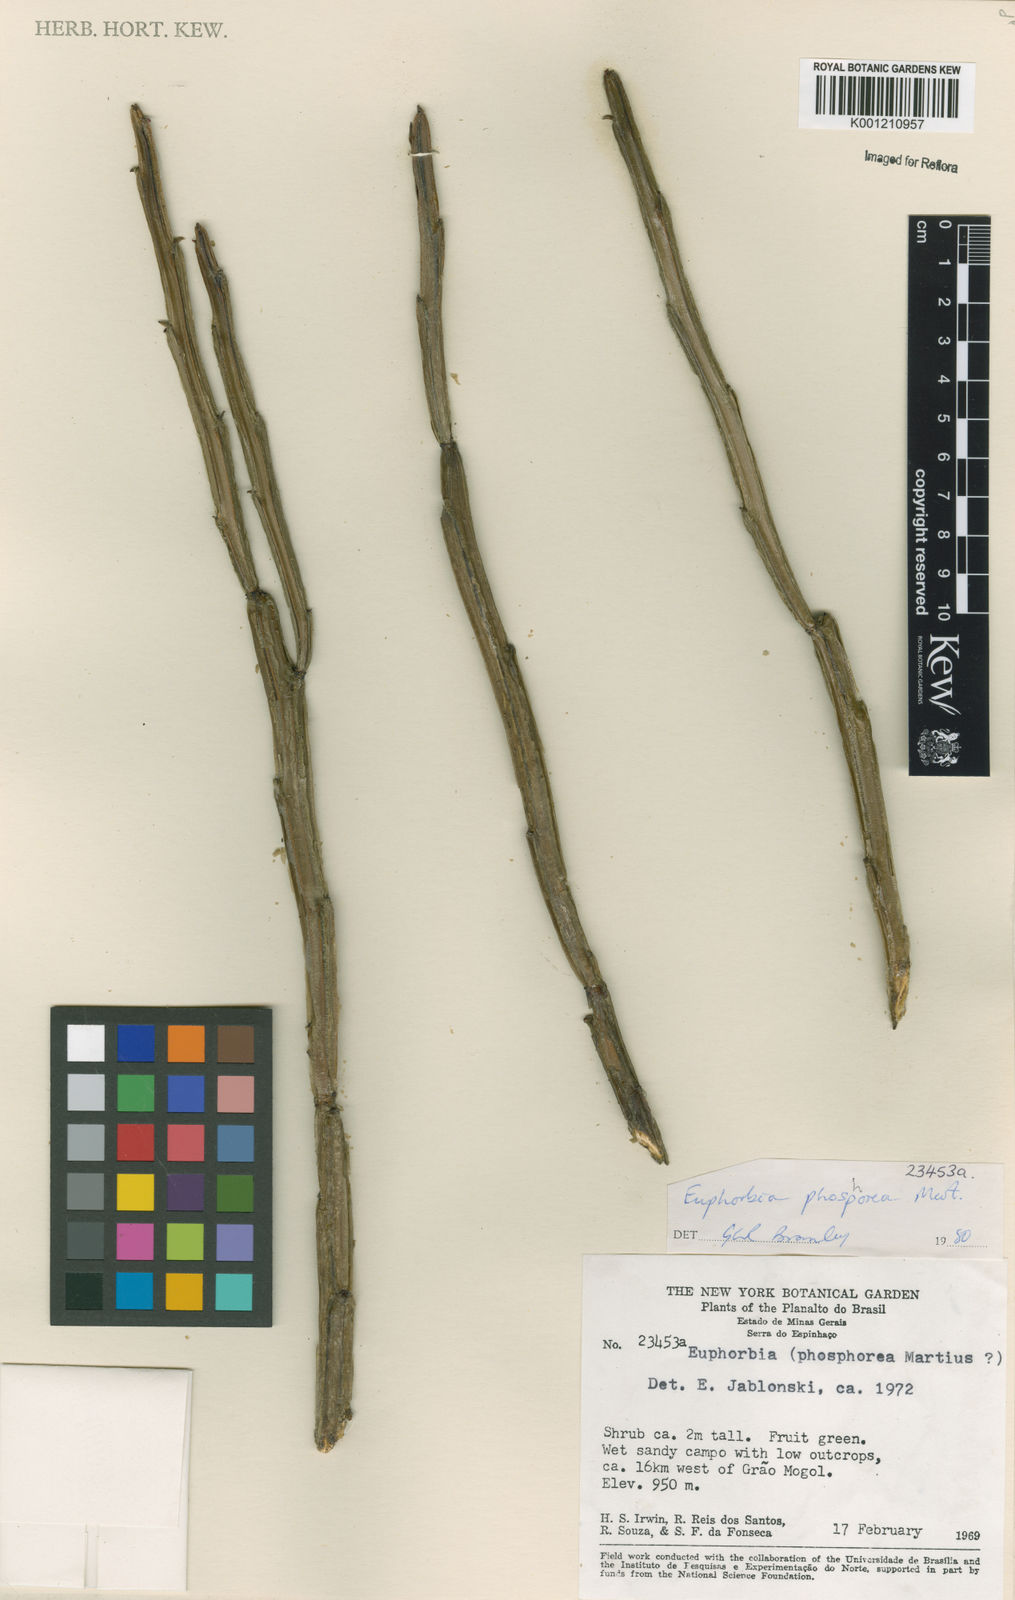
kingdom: Plantae
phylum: Tracheophyta
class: Magnoliopsida
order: Malpighiales
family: Euphorbiaceae
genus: Euphorbia
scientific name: Euphorbia phosphorea
